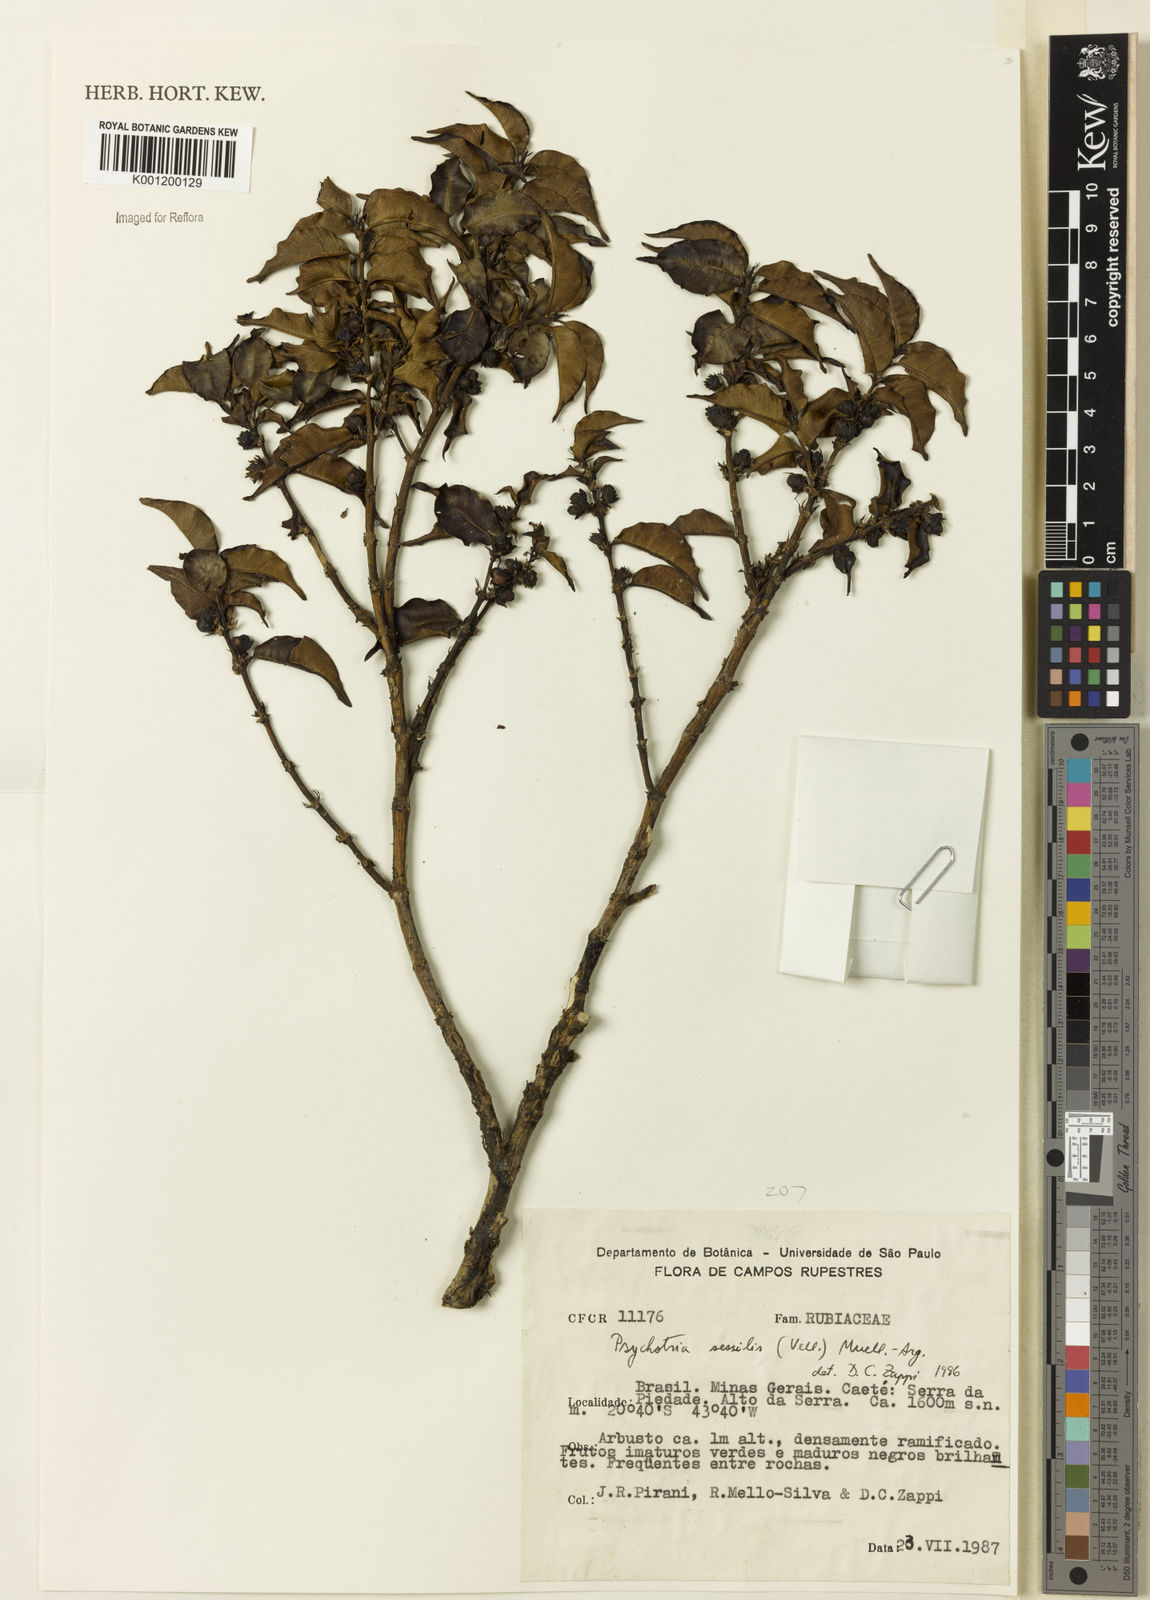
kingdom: Plantae
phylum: Tracheophyta
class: Magnoliopsida
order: Gentianales
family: Rubiaceae
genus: Rudgea
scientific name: Rudgea sessilis
